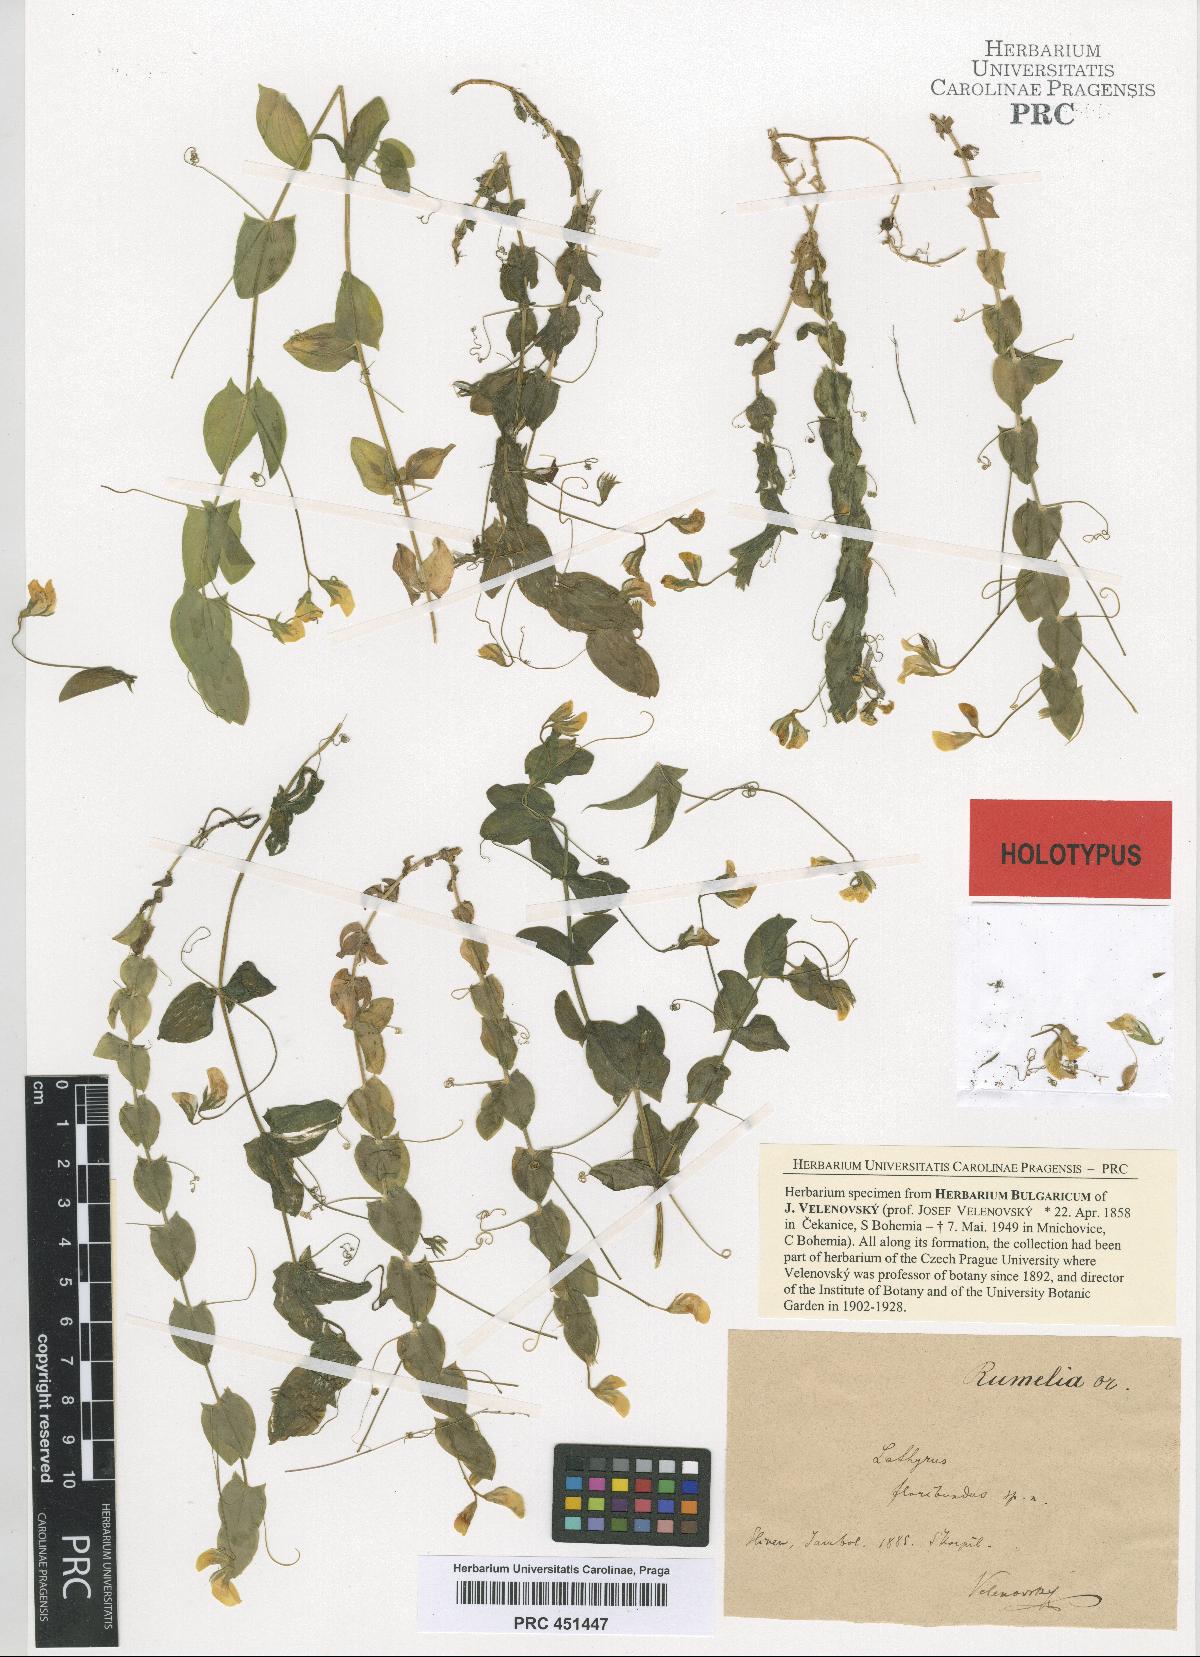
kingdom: Plantae
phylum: Tracheophyta
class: Magnoliopsida
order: Fabales
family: Fabaceae
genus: Lathyrus
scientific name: Lathyrus aphaca
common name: Yellow vetchling
